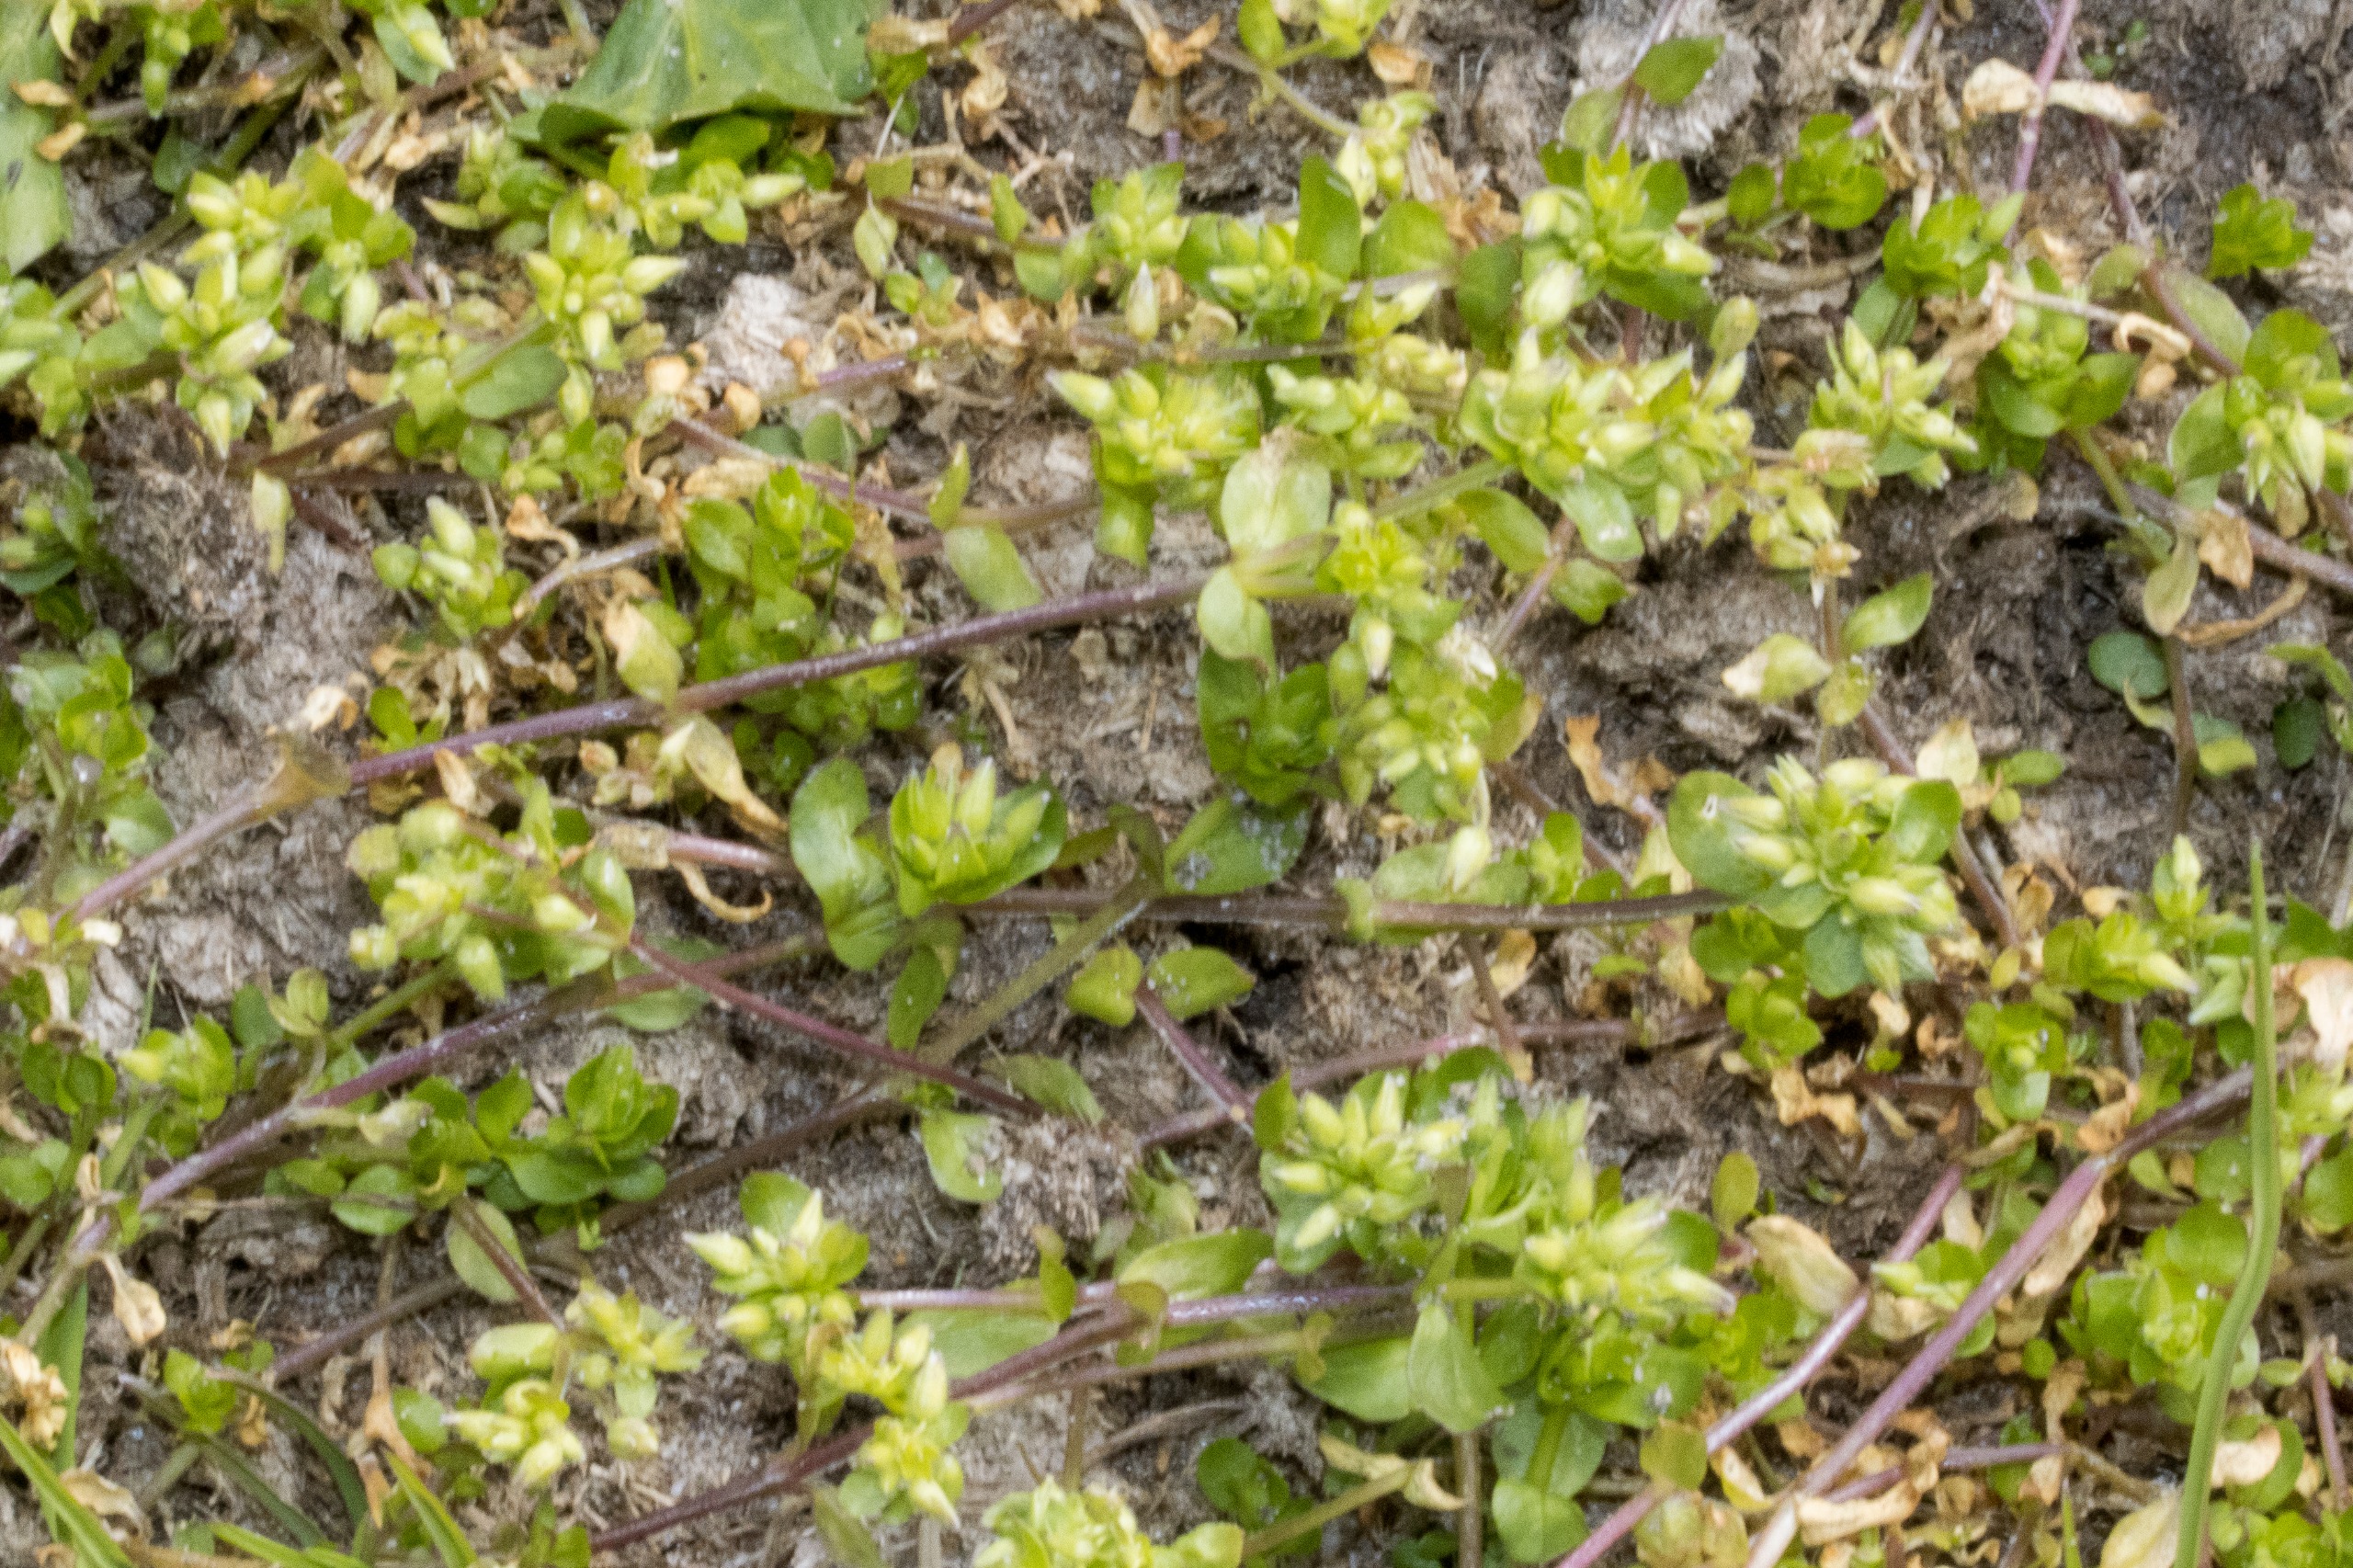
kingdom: Plantae
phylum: Tracheophyta
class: Magnoliopsida
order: Caryophyllales
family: Caryophyllaceae
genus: Stellaria
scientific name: Stellaria apetala
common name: Bleg fuglegræs
